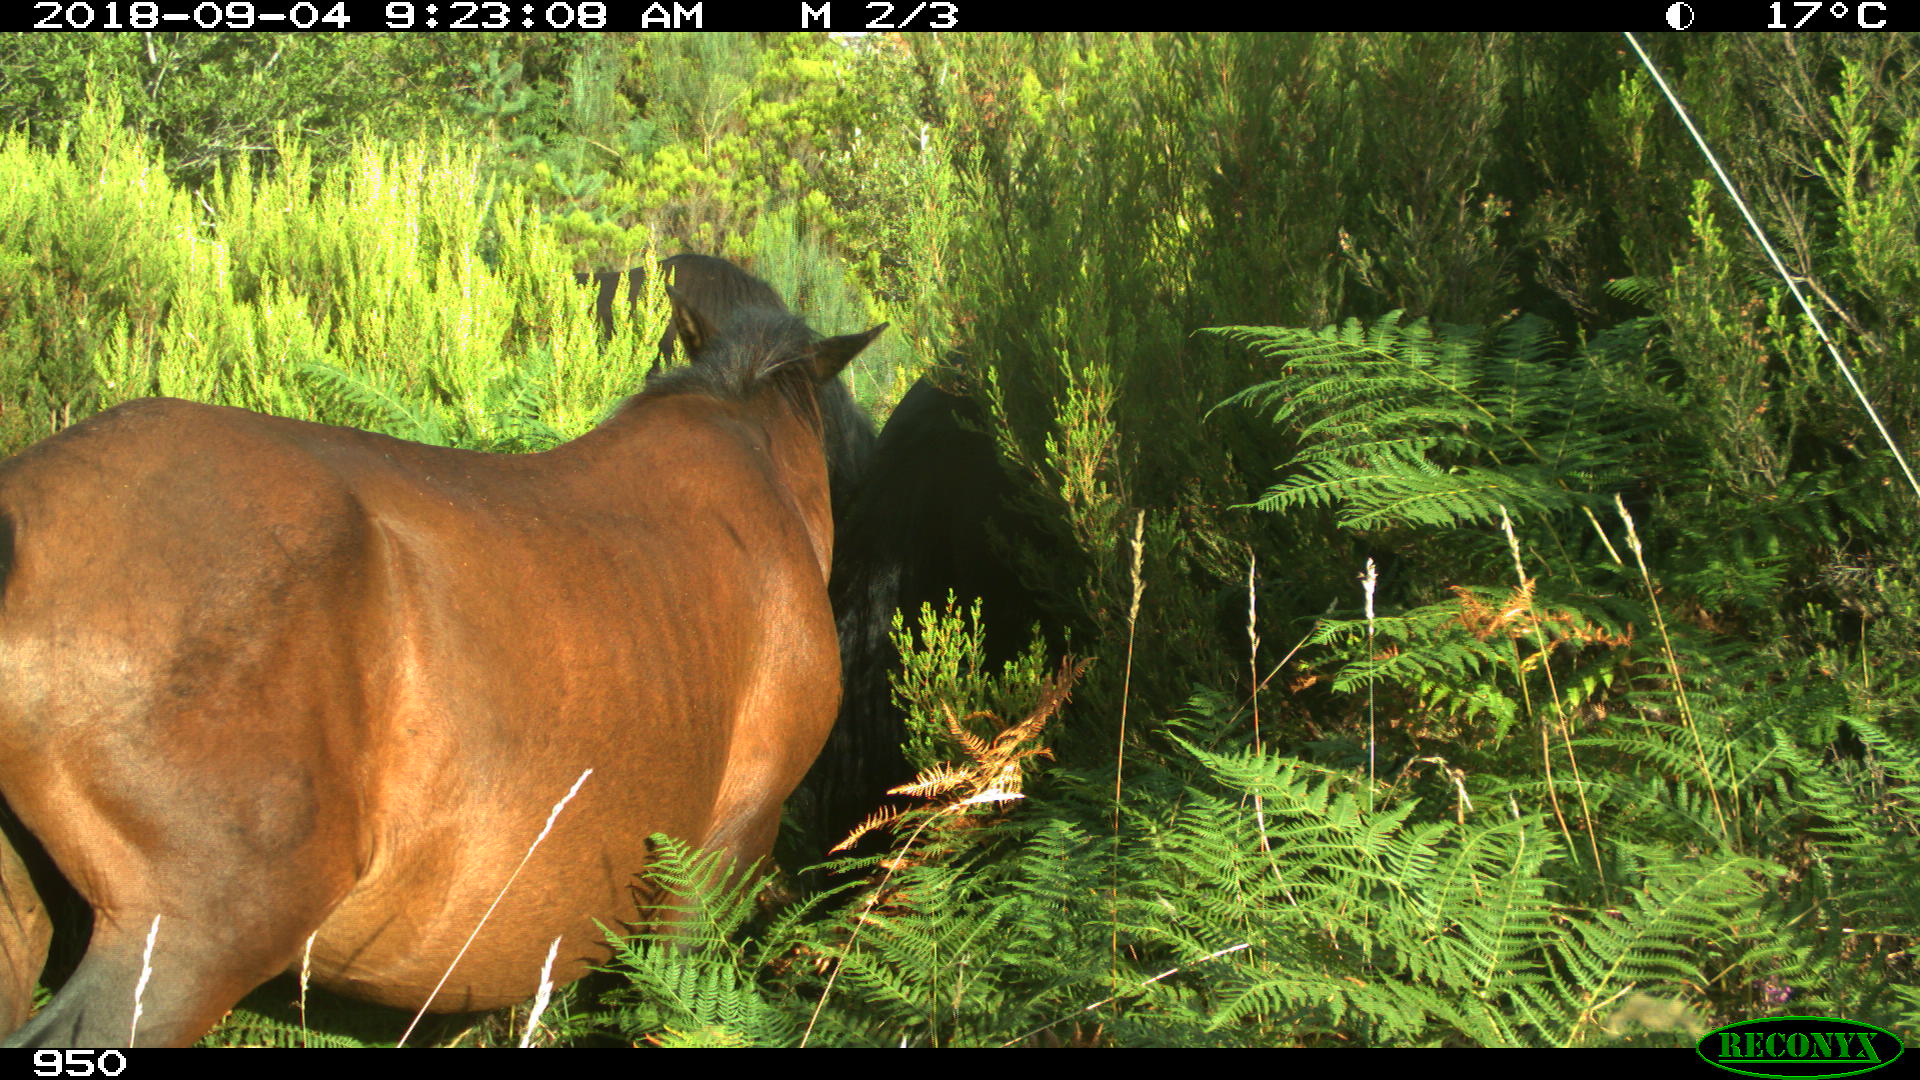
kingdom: Animalia
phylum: Chordata
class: Mammalia
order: Perissodactyla
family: Equidae
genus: Equus
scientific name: Equus caballus
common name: Horse
